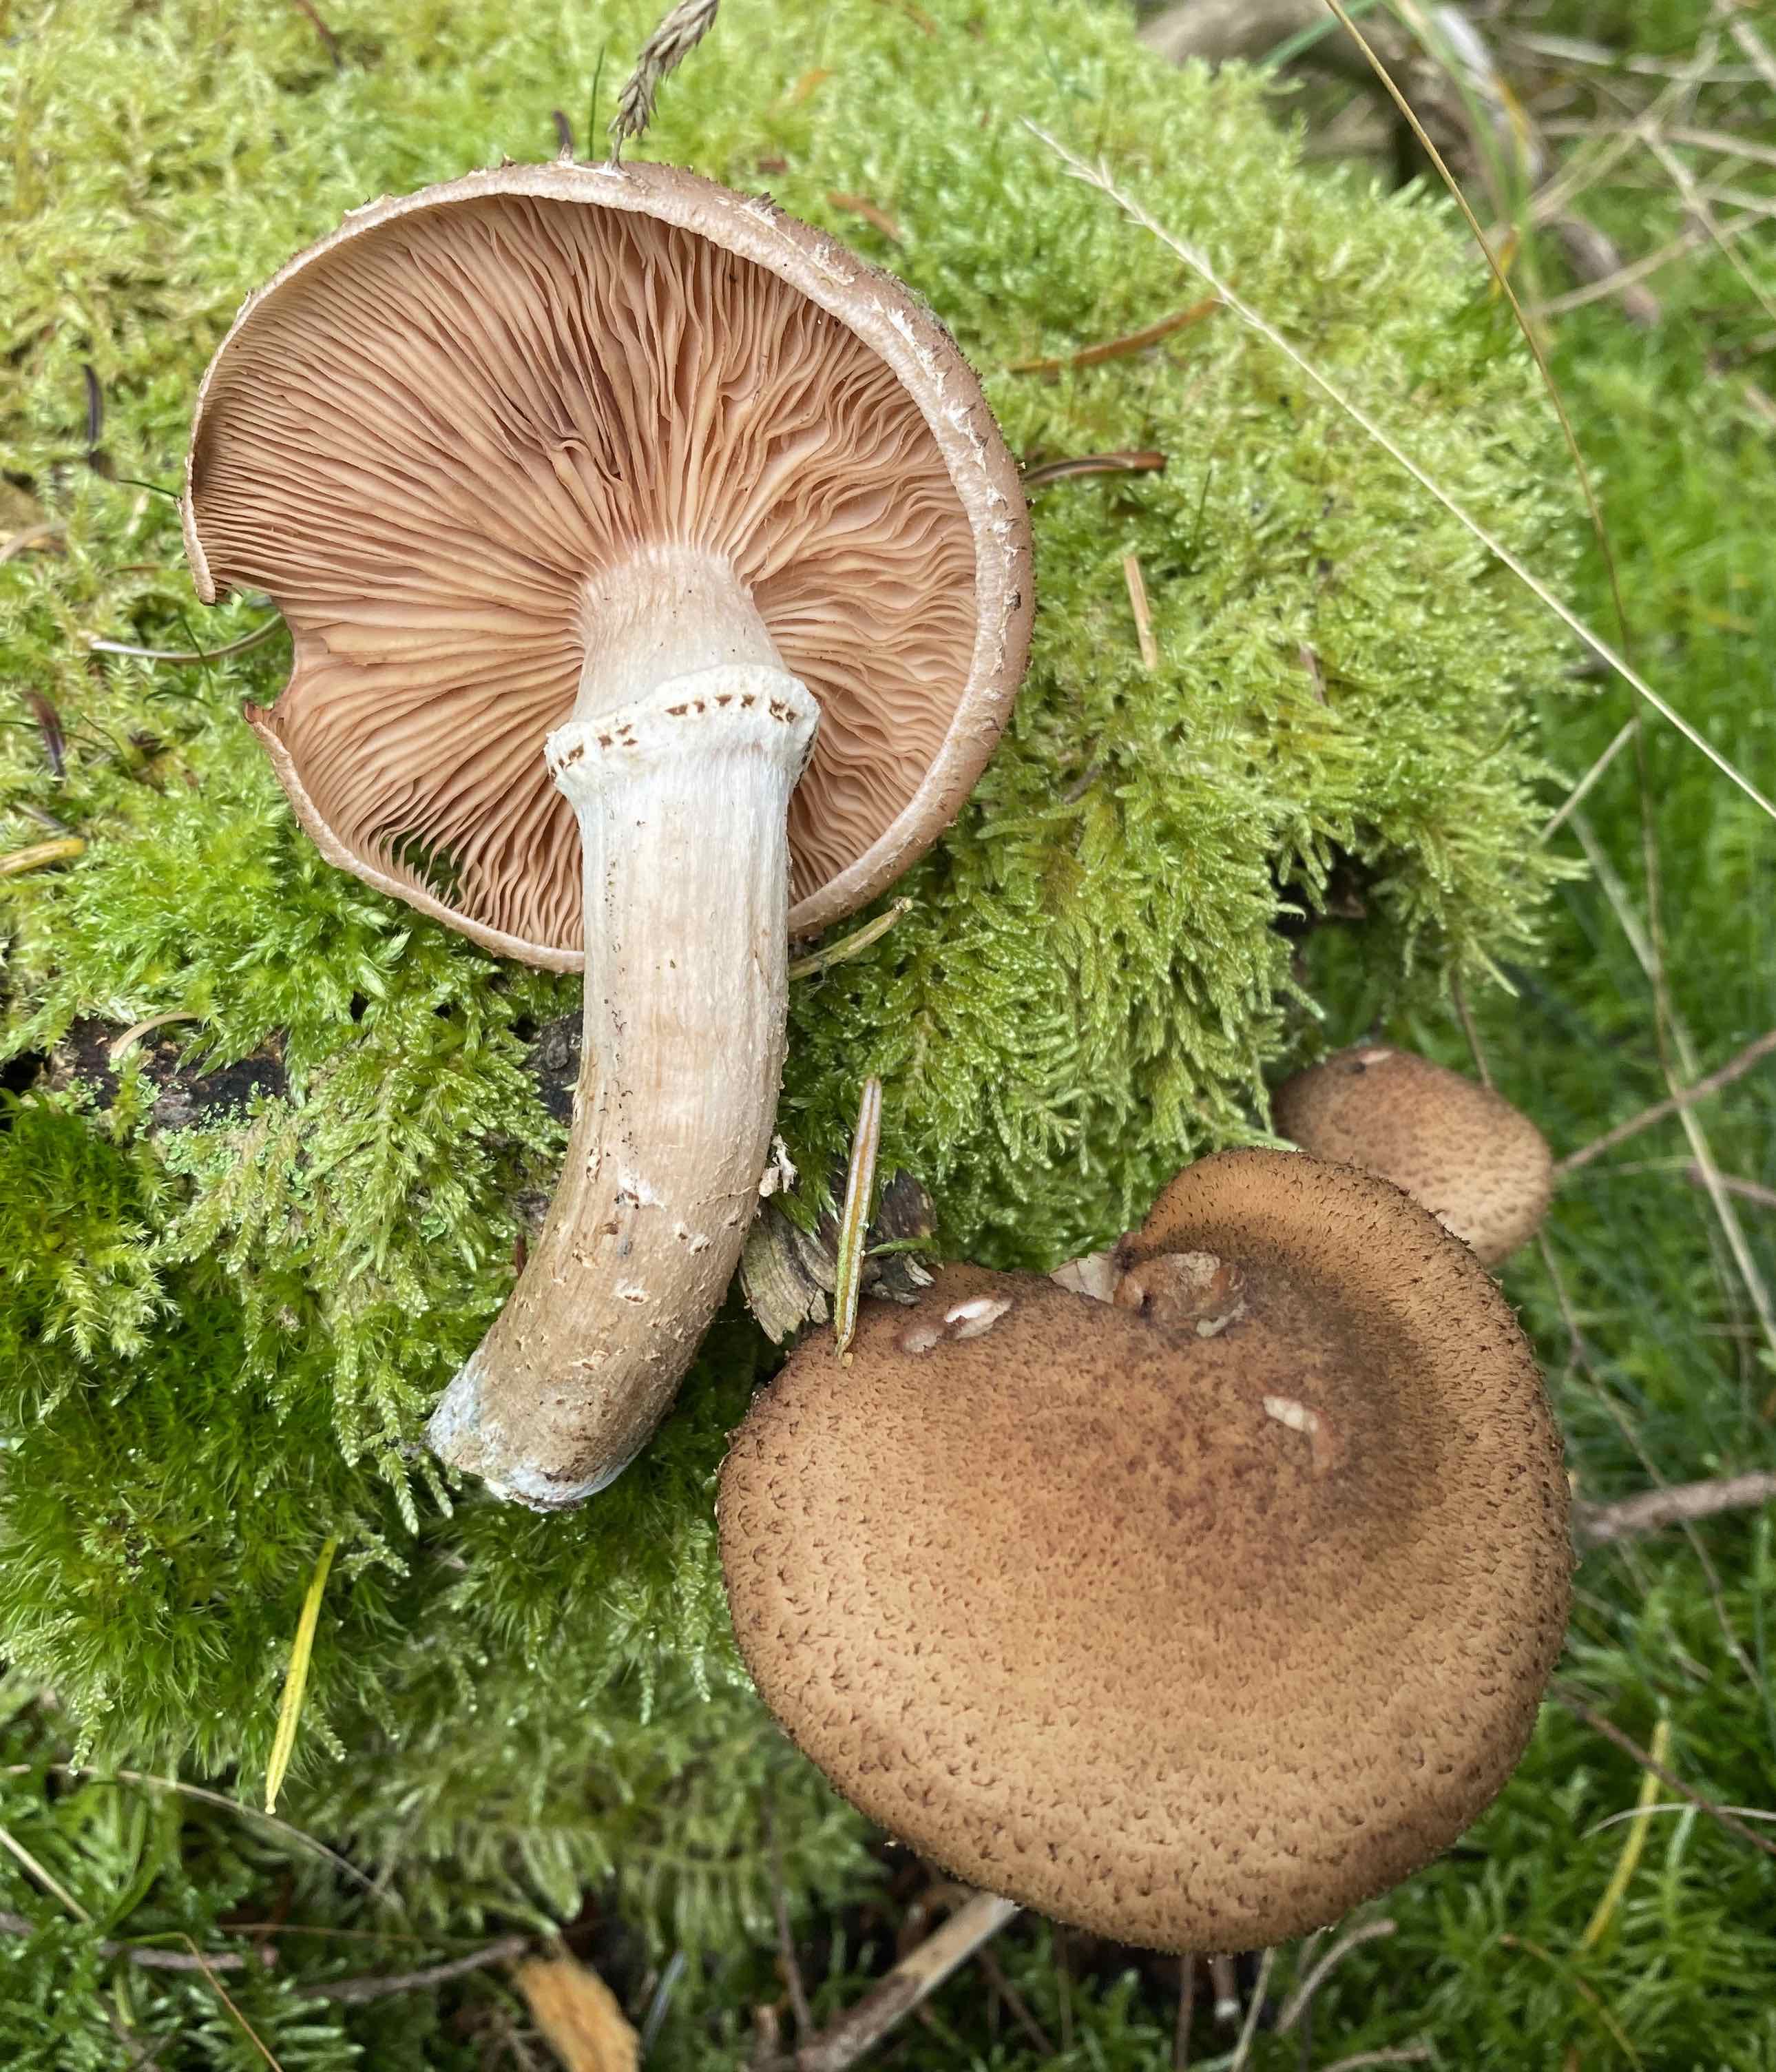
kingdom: Fungi
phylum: Basidiomycota
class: Agaricomycetes
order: Agaricales
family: Physalacriaceae
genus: Armillaria
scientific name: Armillaria ostoyae
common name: mørk honningsvamp
